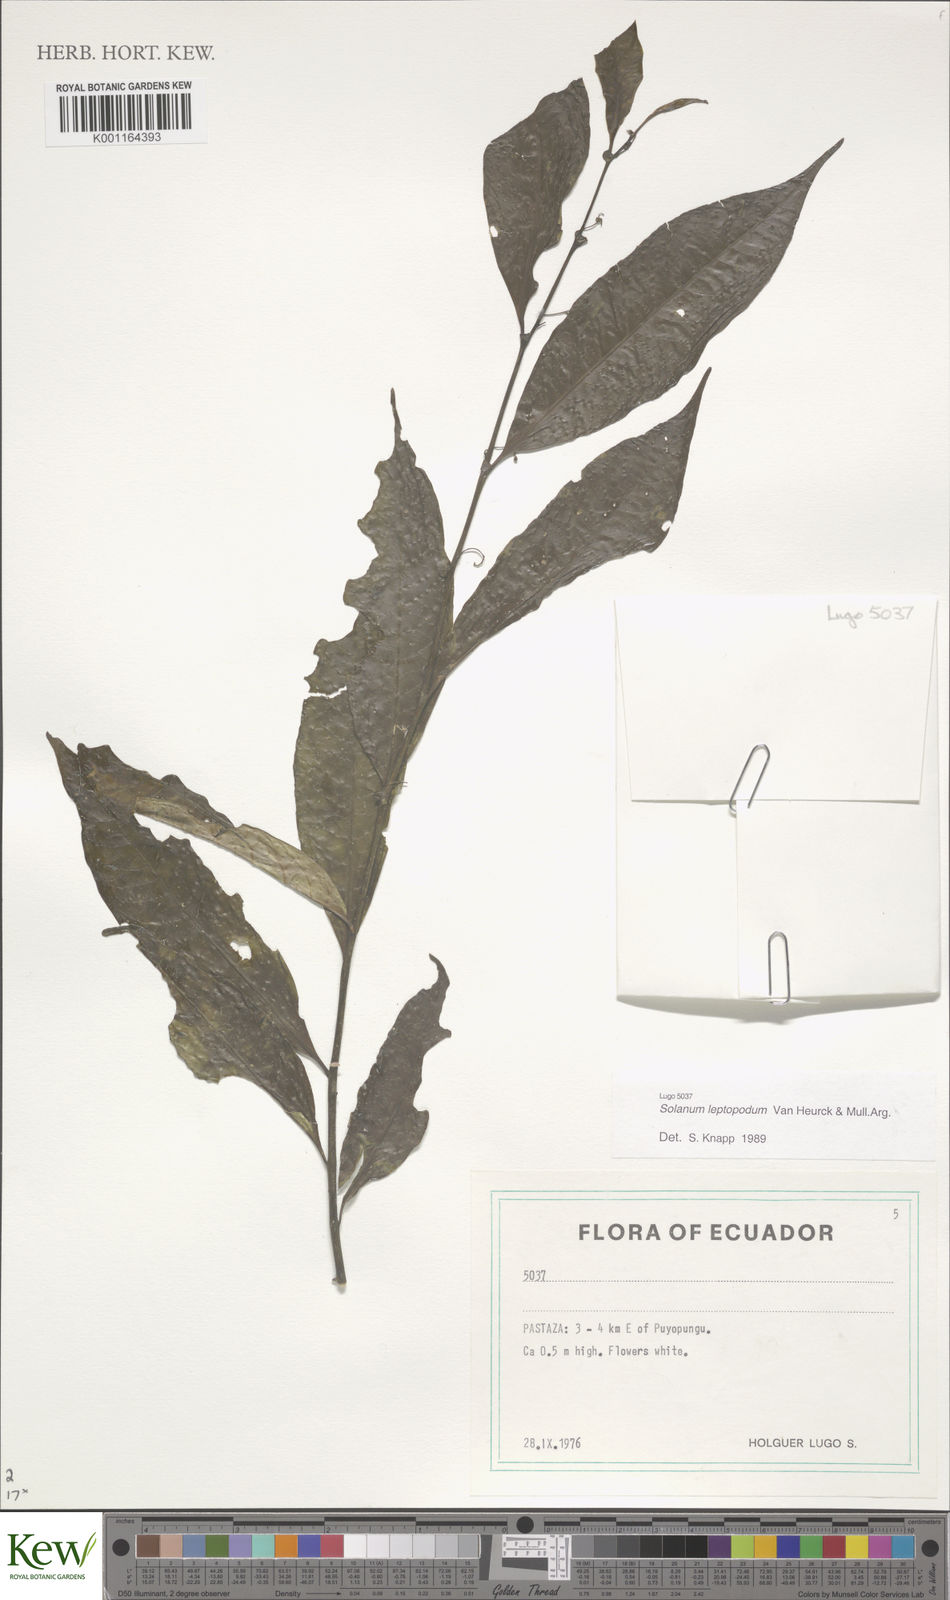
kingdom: Plantae
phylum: Tracheophyta
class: Magnoliopsida
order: Solanales
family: Solanaceae
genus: Solanum
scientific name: Solanum leptopodum
